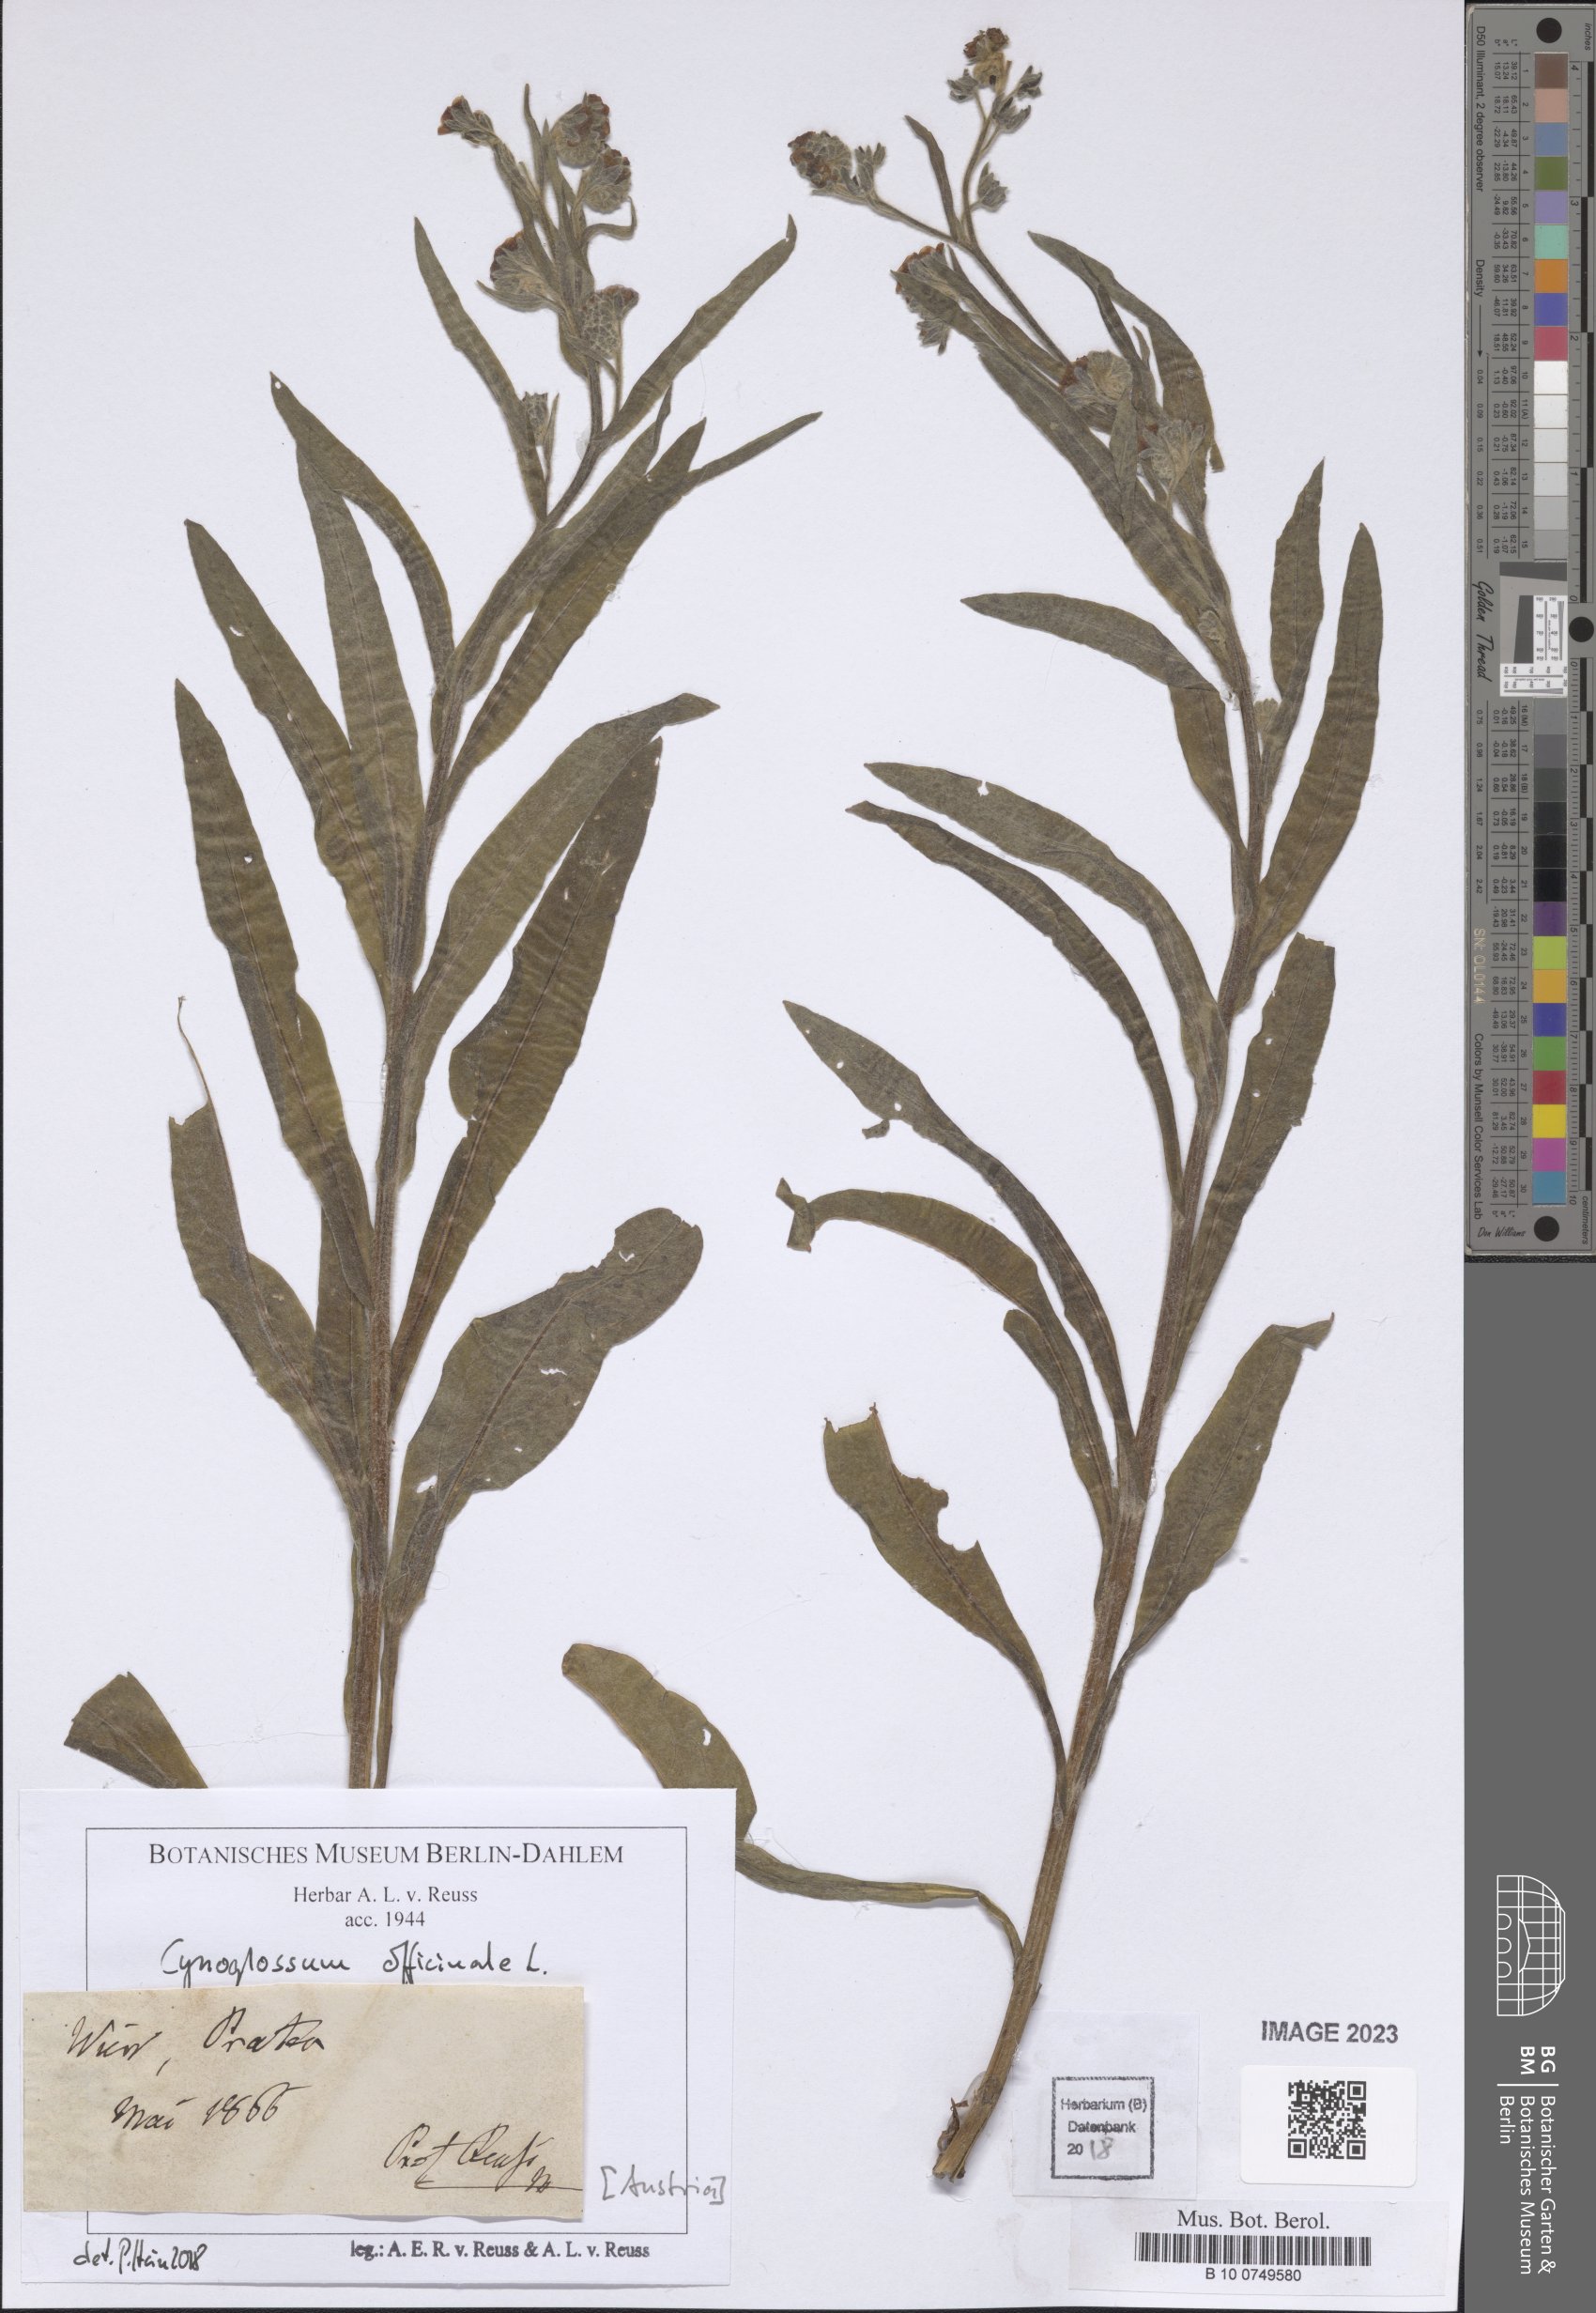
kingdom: Plantae
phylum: Tracheophyta
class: Magnoliopsida
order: Boraginales
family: Boraginaceae
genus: Cynoglossum
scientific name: Cynoglossum officinale
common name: Hound's-tongue
